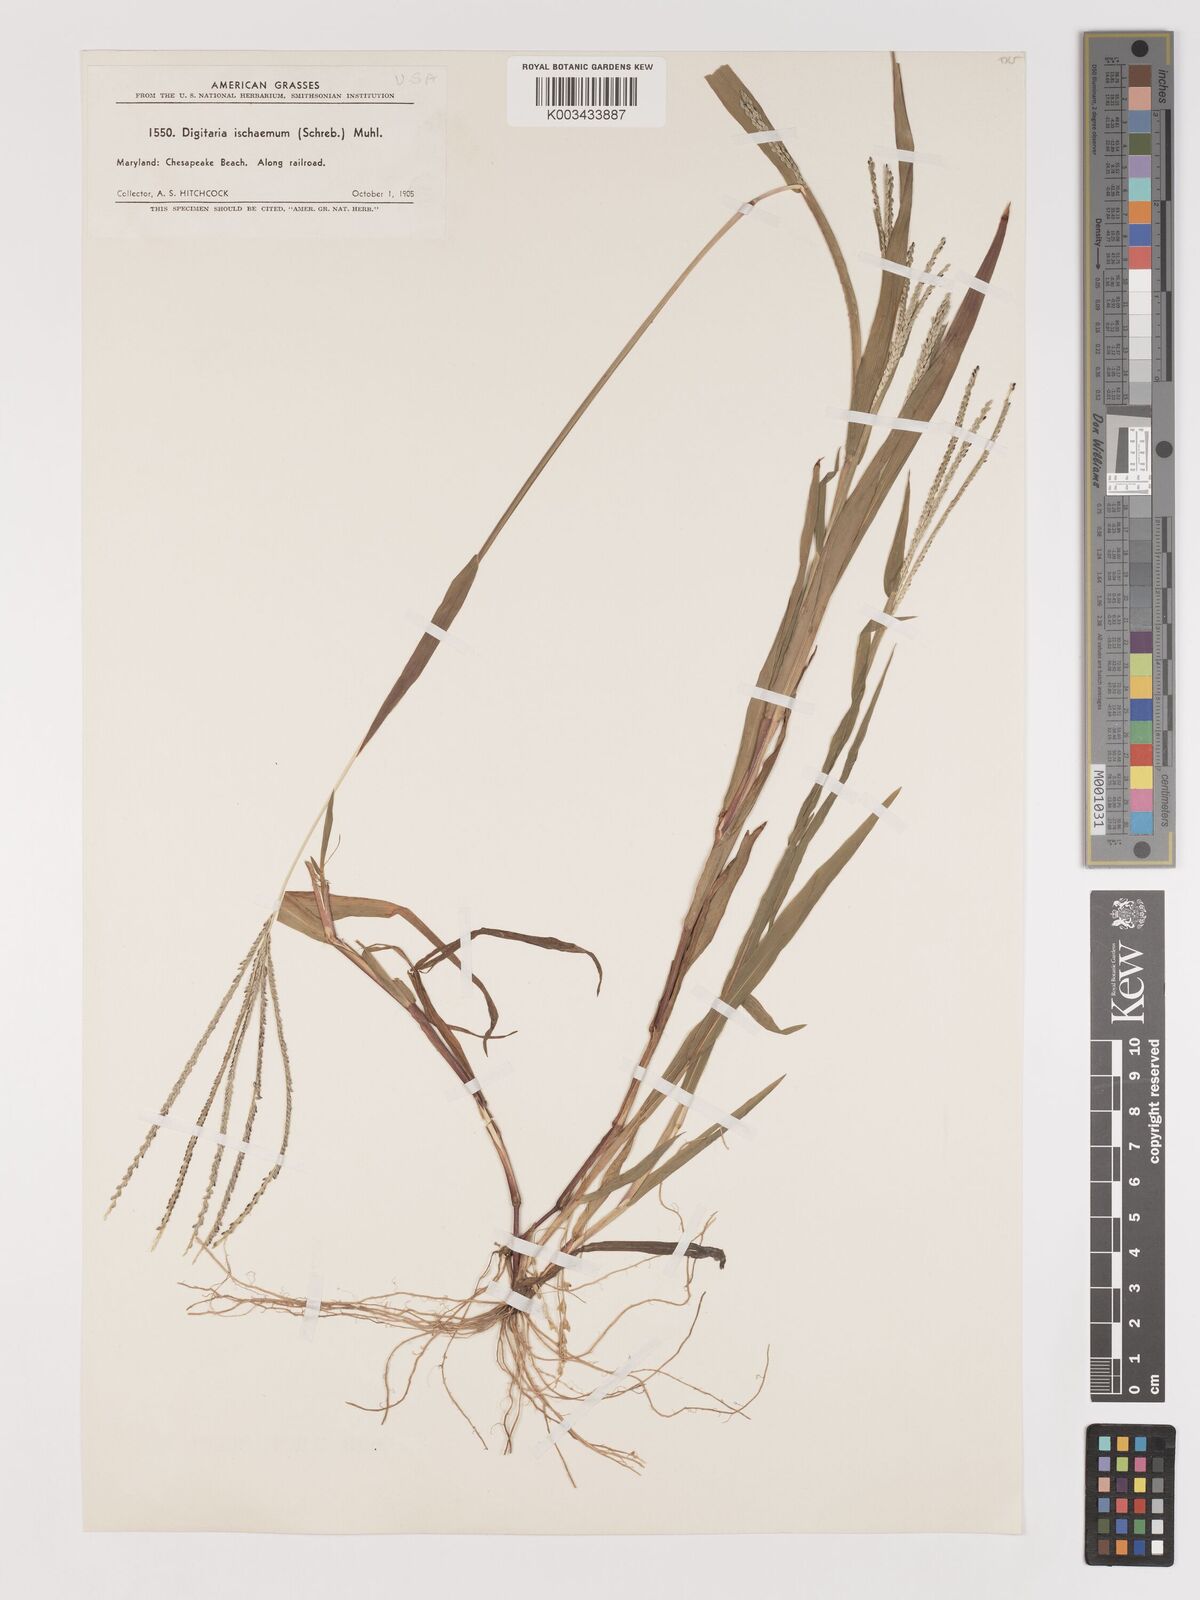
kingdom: Plantae
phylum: Tracheophyta
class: Liliopsida
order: Poales
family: Poaceae
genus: Digitaria
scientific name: Digitaria ischaemum
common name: Smooth crabgrass
